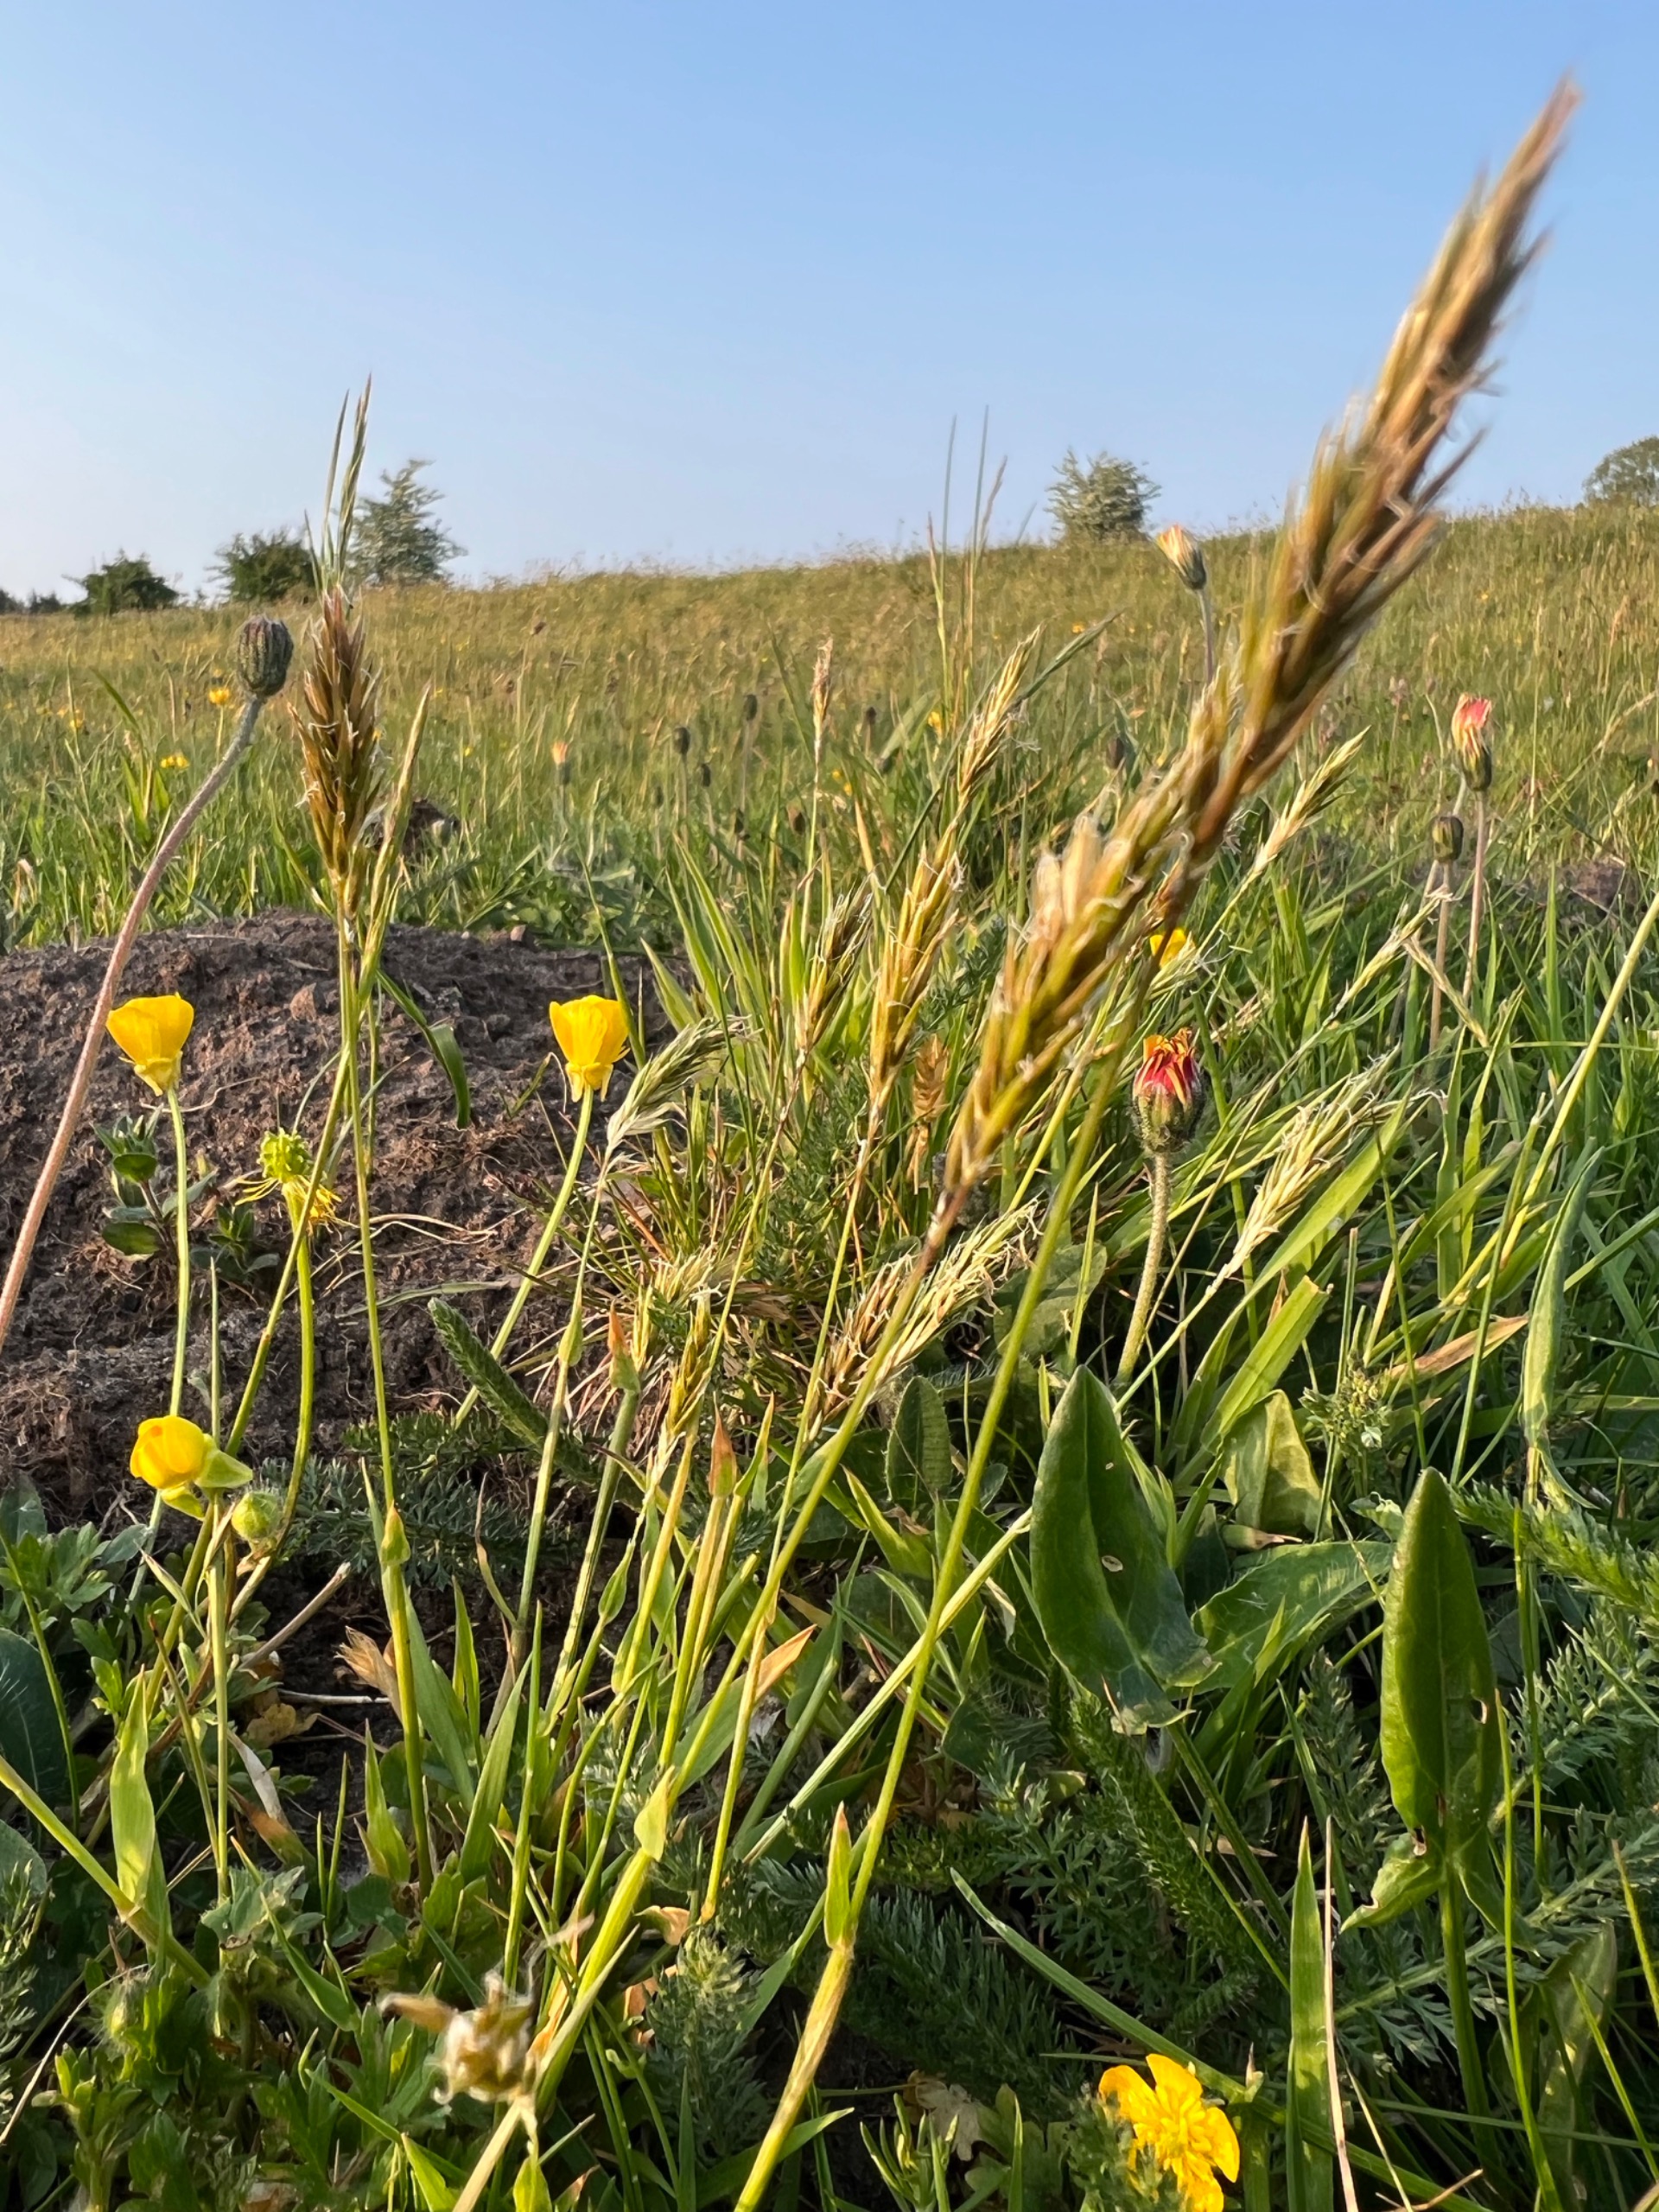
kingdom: Plantae
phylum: Tracheophyta
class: Liliopsida
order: Poales
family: Poaceae
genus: Anthoxanthum
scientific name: Anthoxanthum odoratum
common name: Vellugtende gulaks
